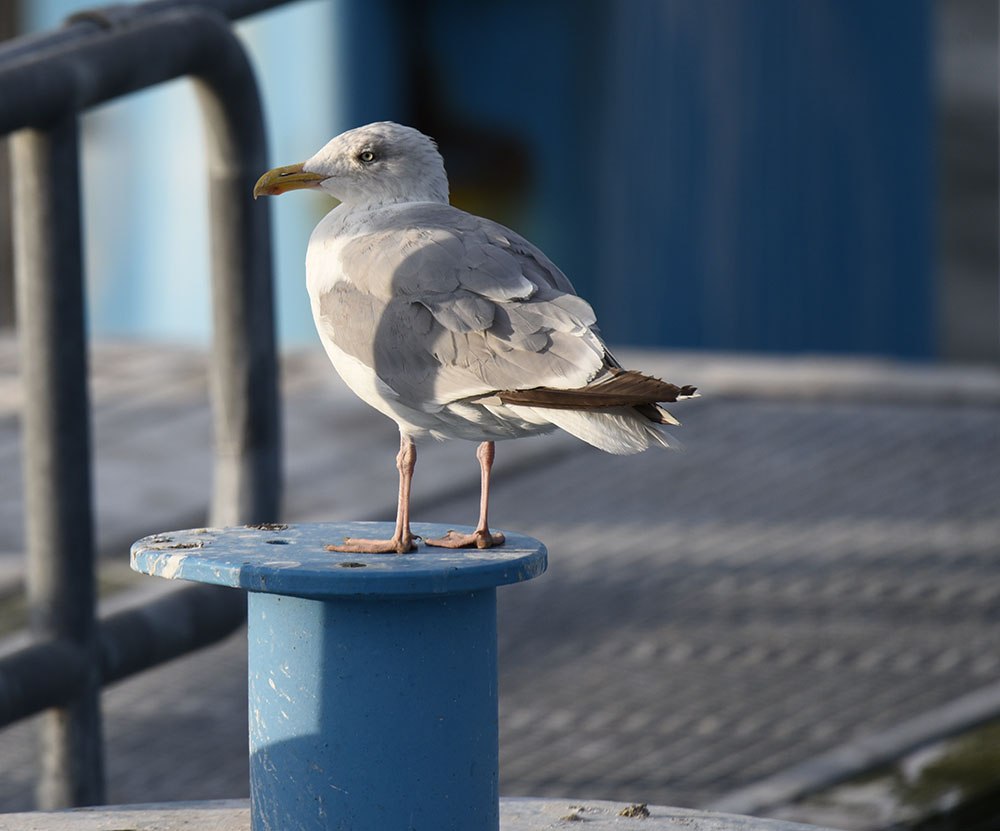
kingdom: Animalia
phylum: Chordata
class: Aves
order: Charadriiformes
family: Laridae
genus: Larus
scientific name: Larus argentatus
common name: Herring gull
